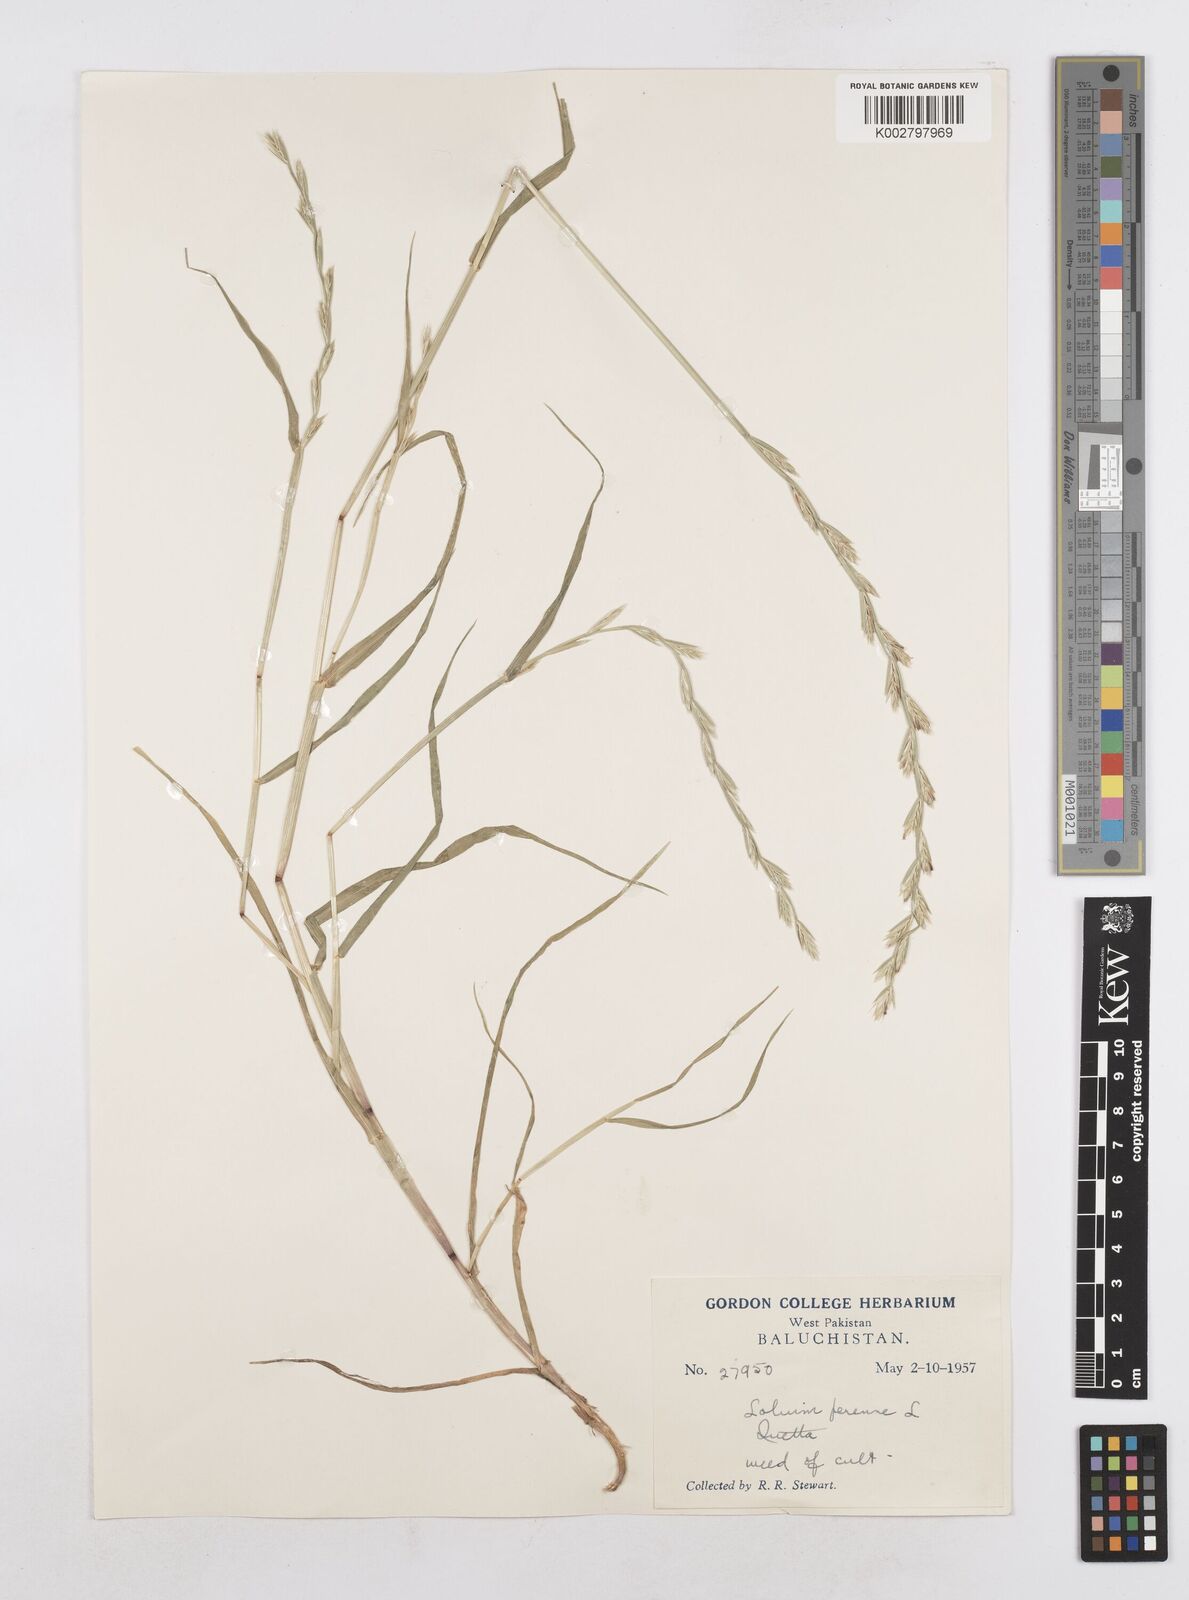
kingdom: Plantae
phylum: Tracheophyta
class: Liliopsida
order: Poales
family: Poaceae
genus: Lolium
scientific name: Lolium perenne
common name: Perennial ryegrass
